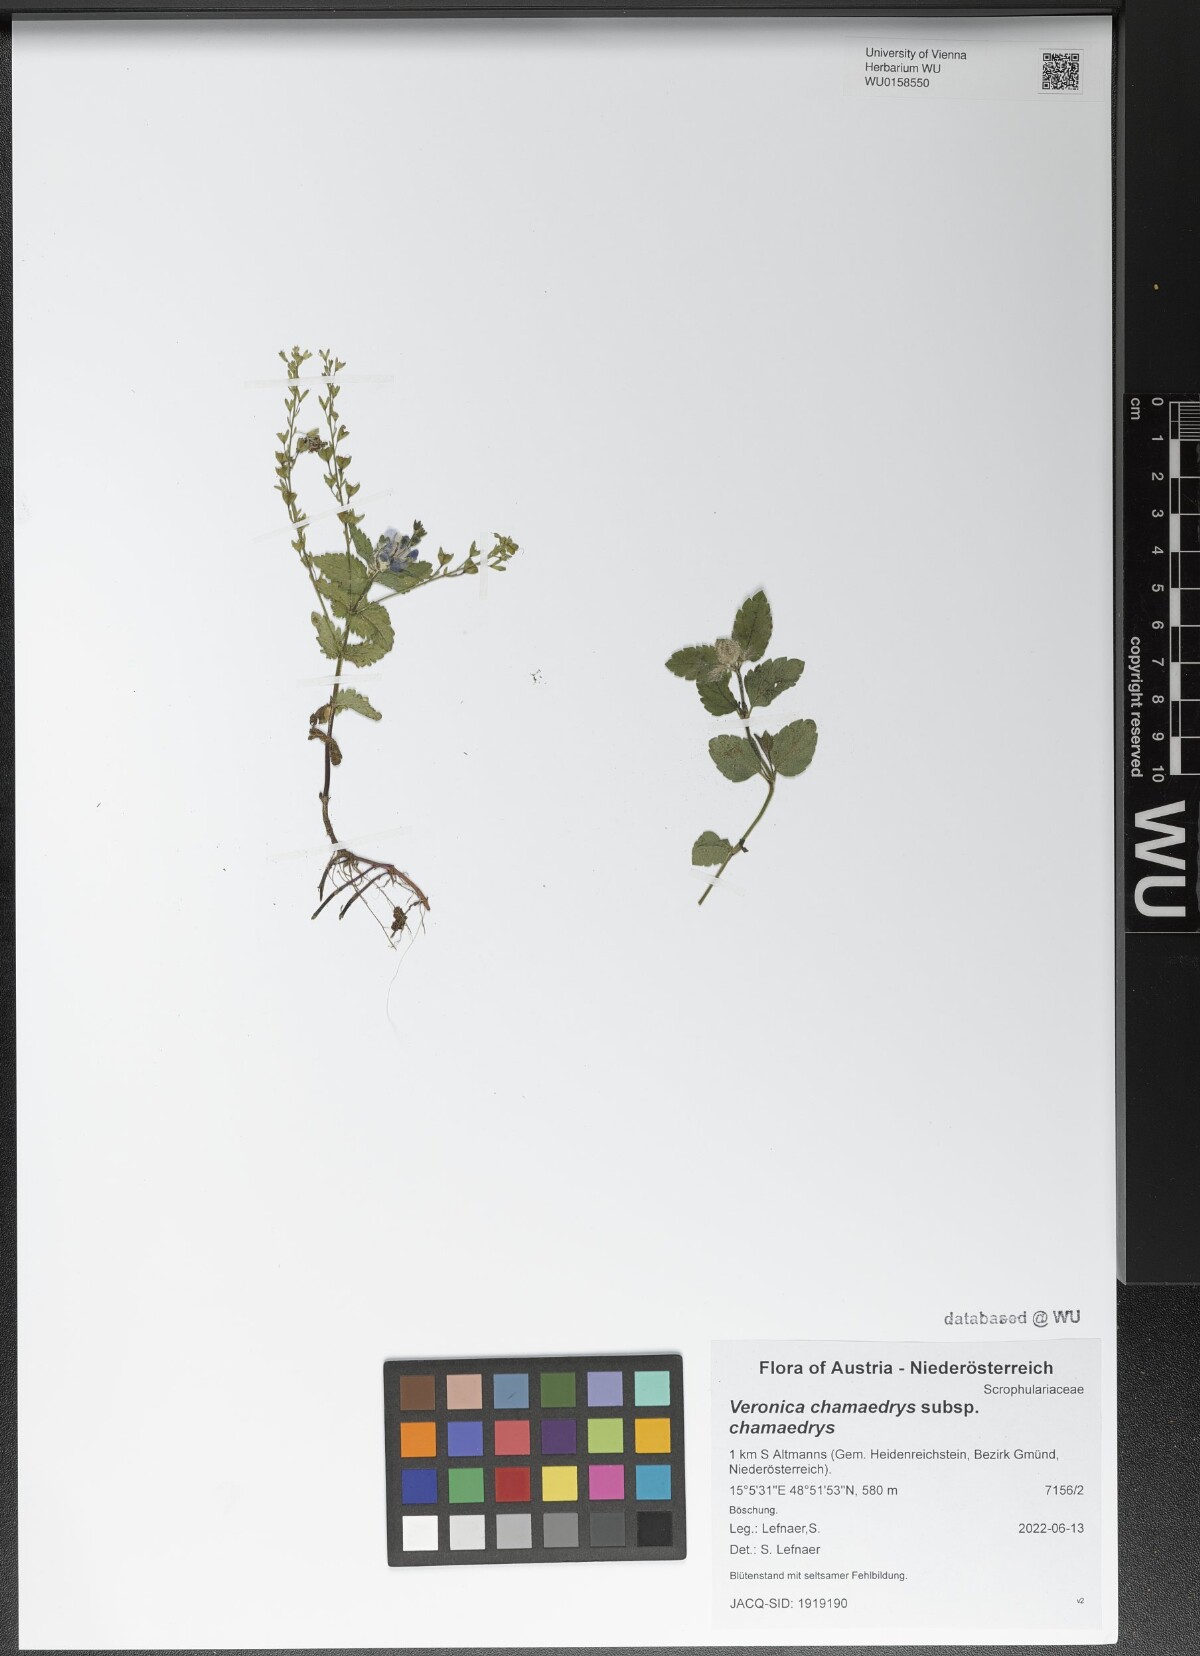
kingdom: Plantae
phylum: Tracheophyta
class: Magnoliopsida
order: Lamiales
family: Plantaginaceae
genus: Veronica
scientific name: Veronica chamaedrys
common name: Germander speedwell
